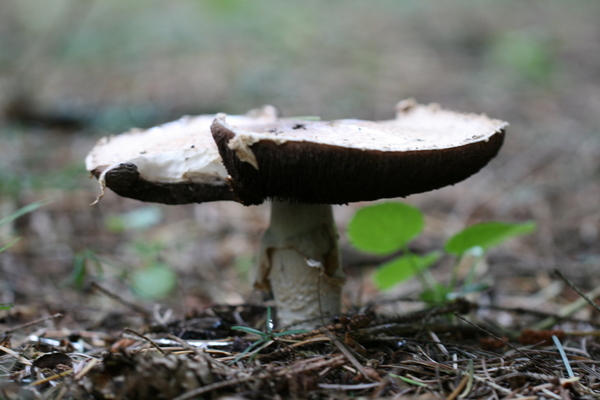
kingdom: Fungi
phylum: Basidiomycota
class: Agaricomycetes
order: Agaricales
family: Agaricaceae
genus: Agaricus
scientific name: Agaricus augustus
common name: prægtig champignon
